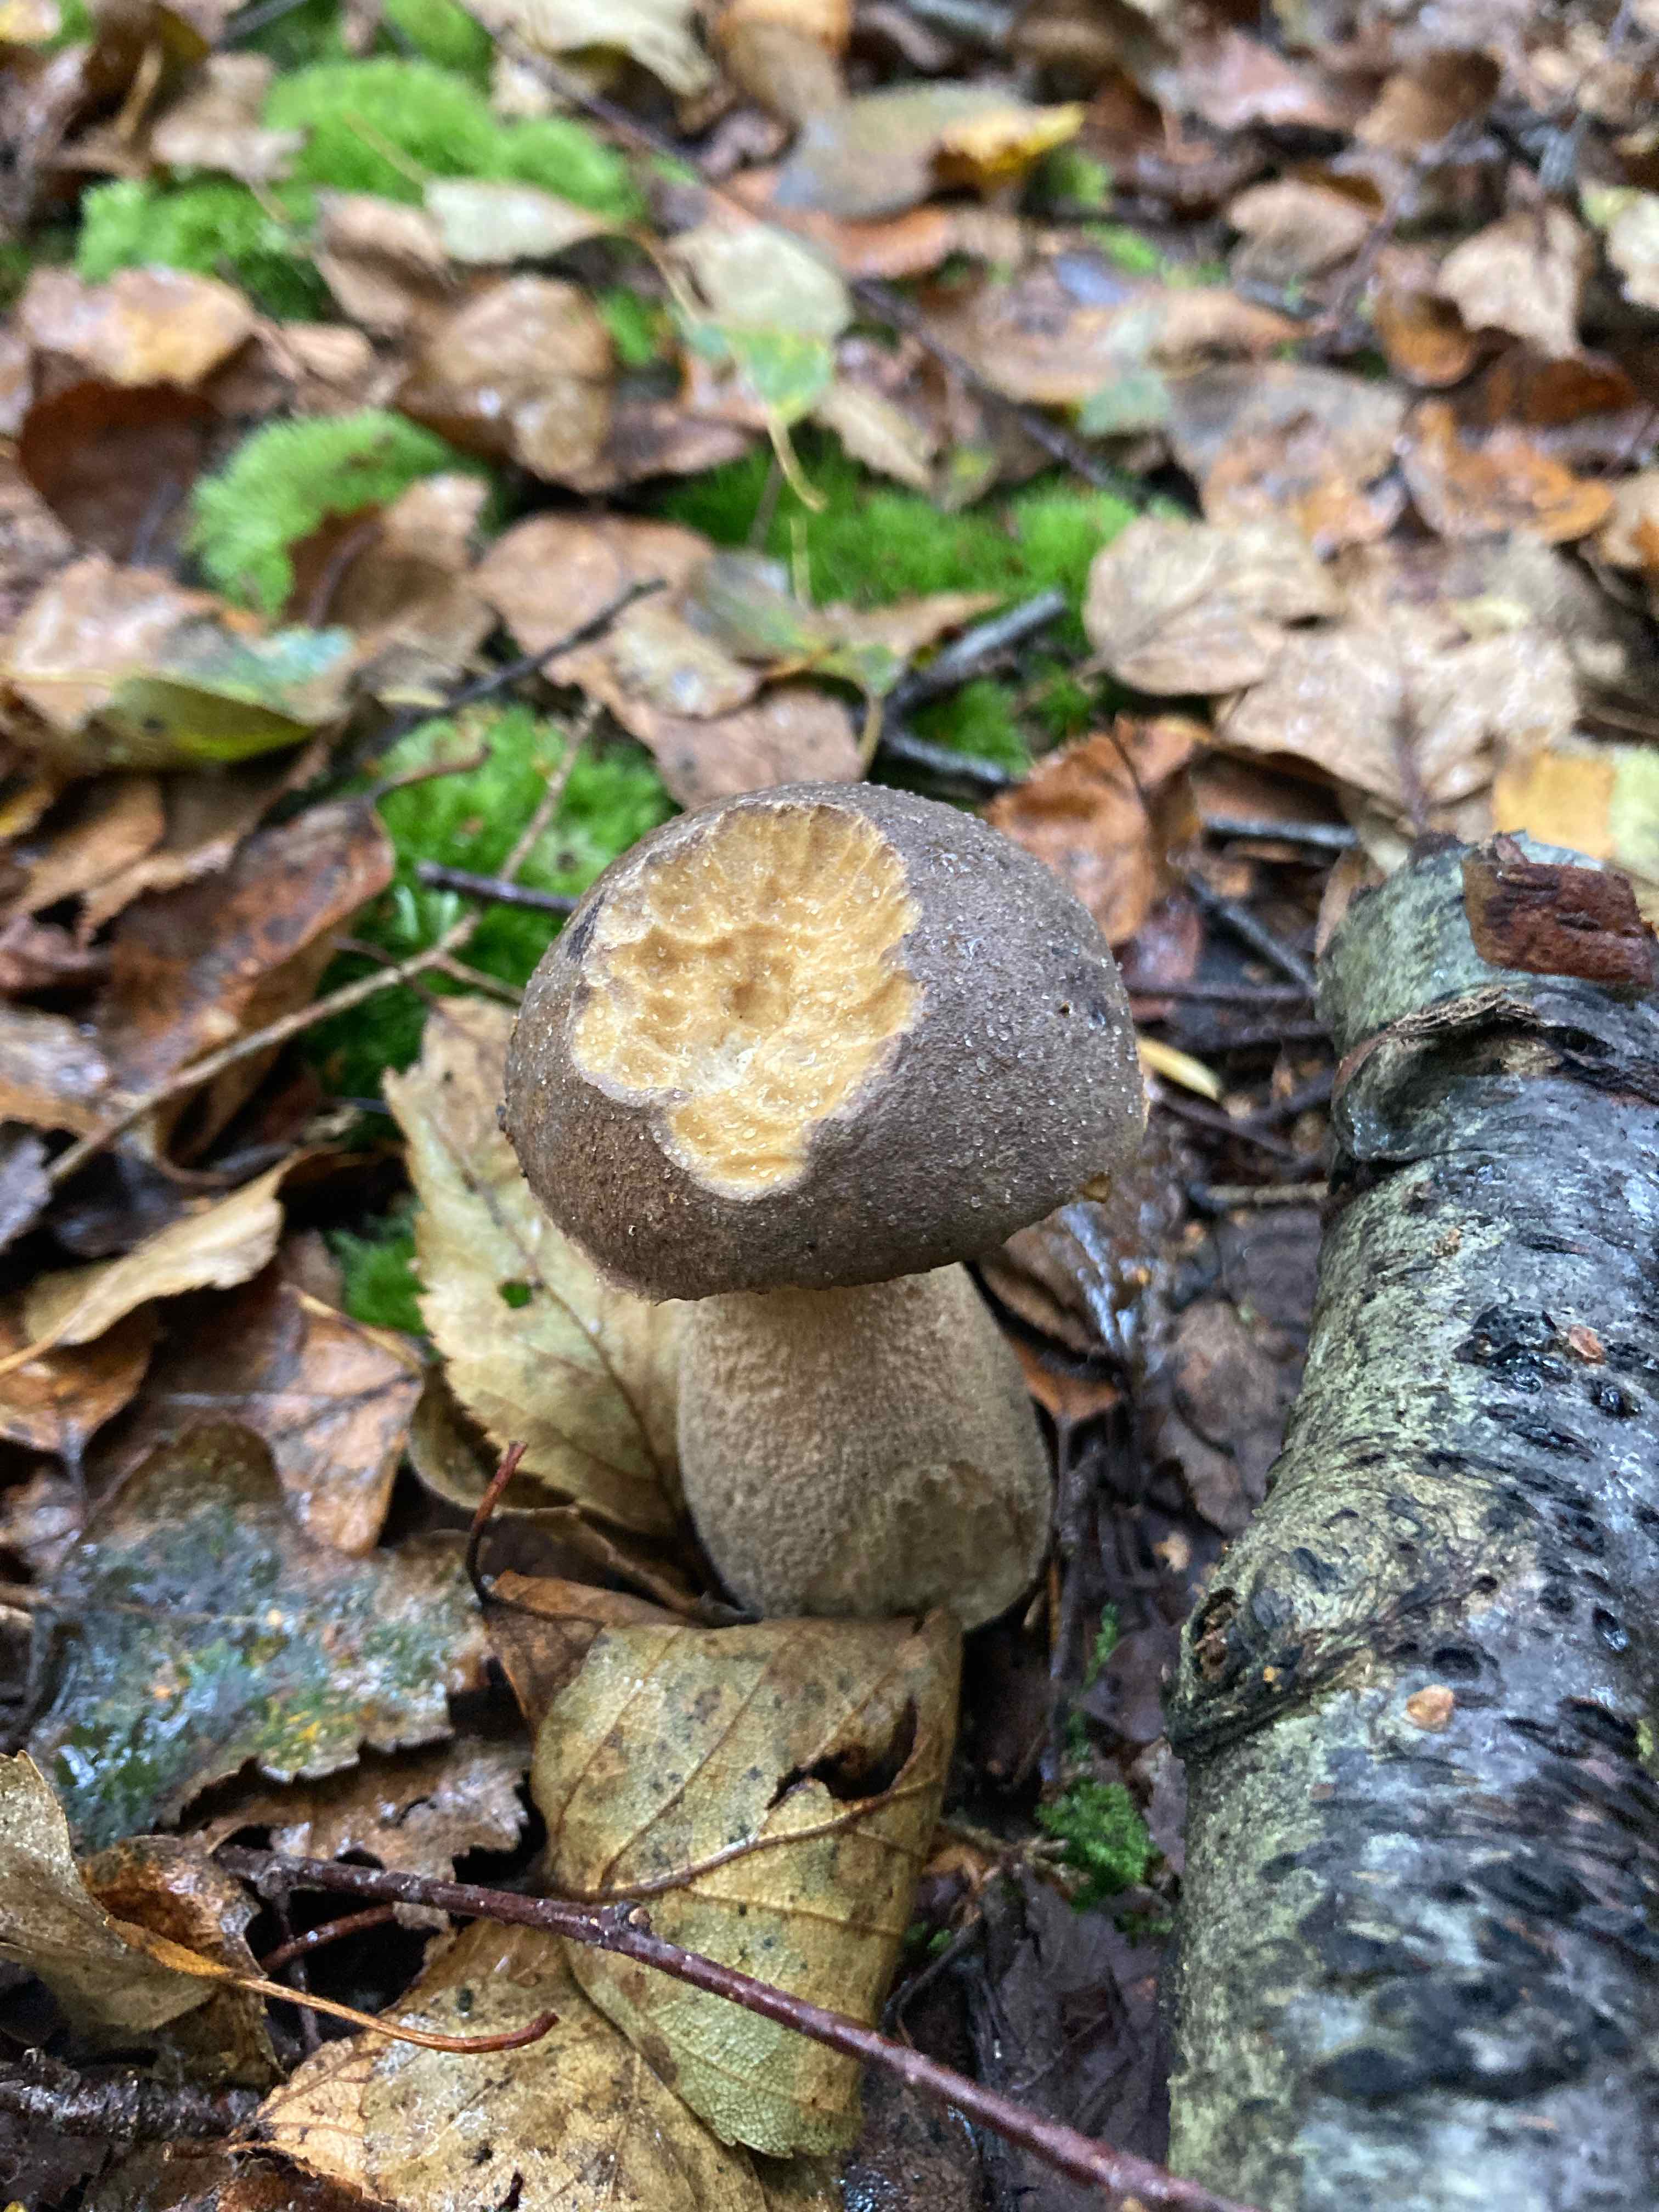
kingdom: Fungi
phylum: Basidiomycota
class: Agaricomycetes
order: Boletales
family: Boletaceae
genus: Leccinum
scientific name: Leccinum
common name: skælrørhat
